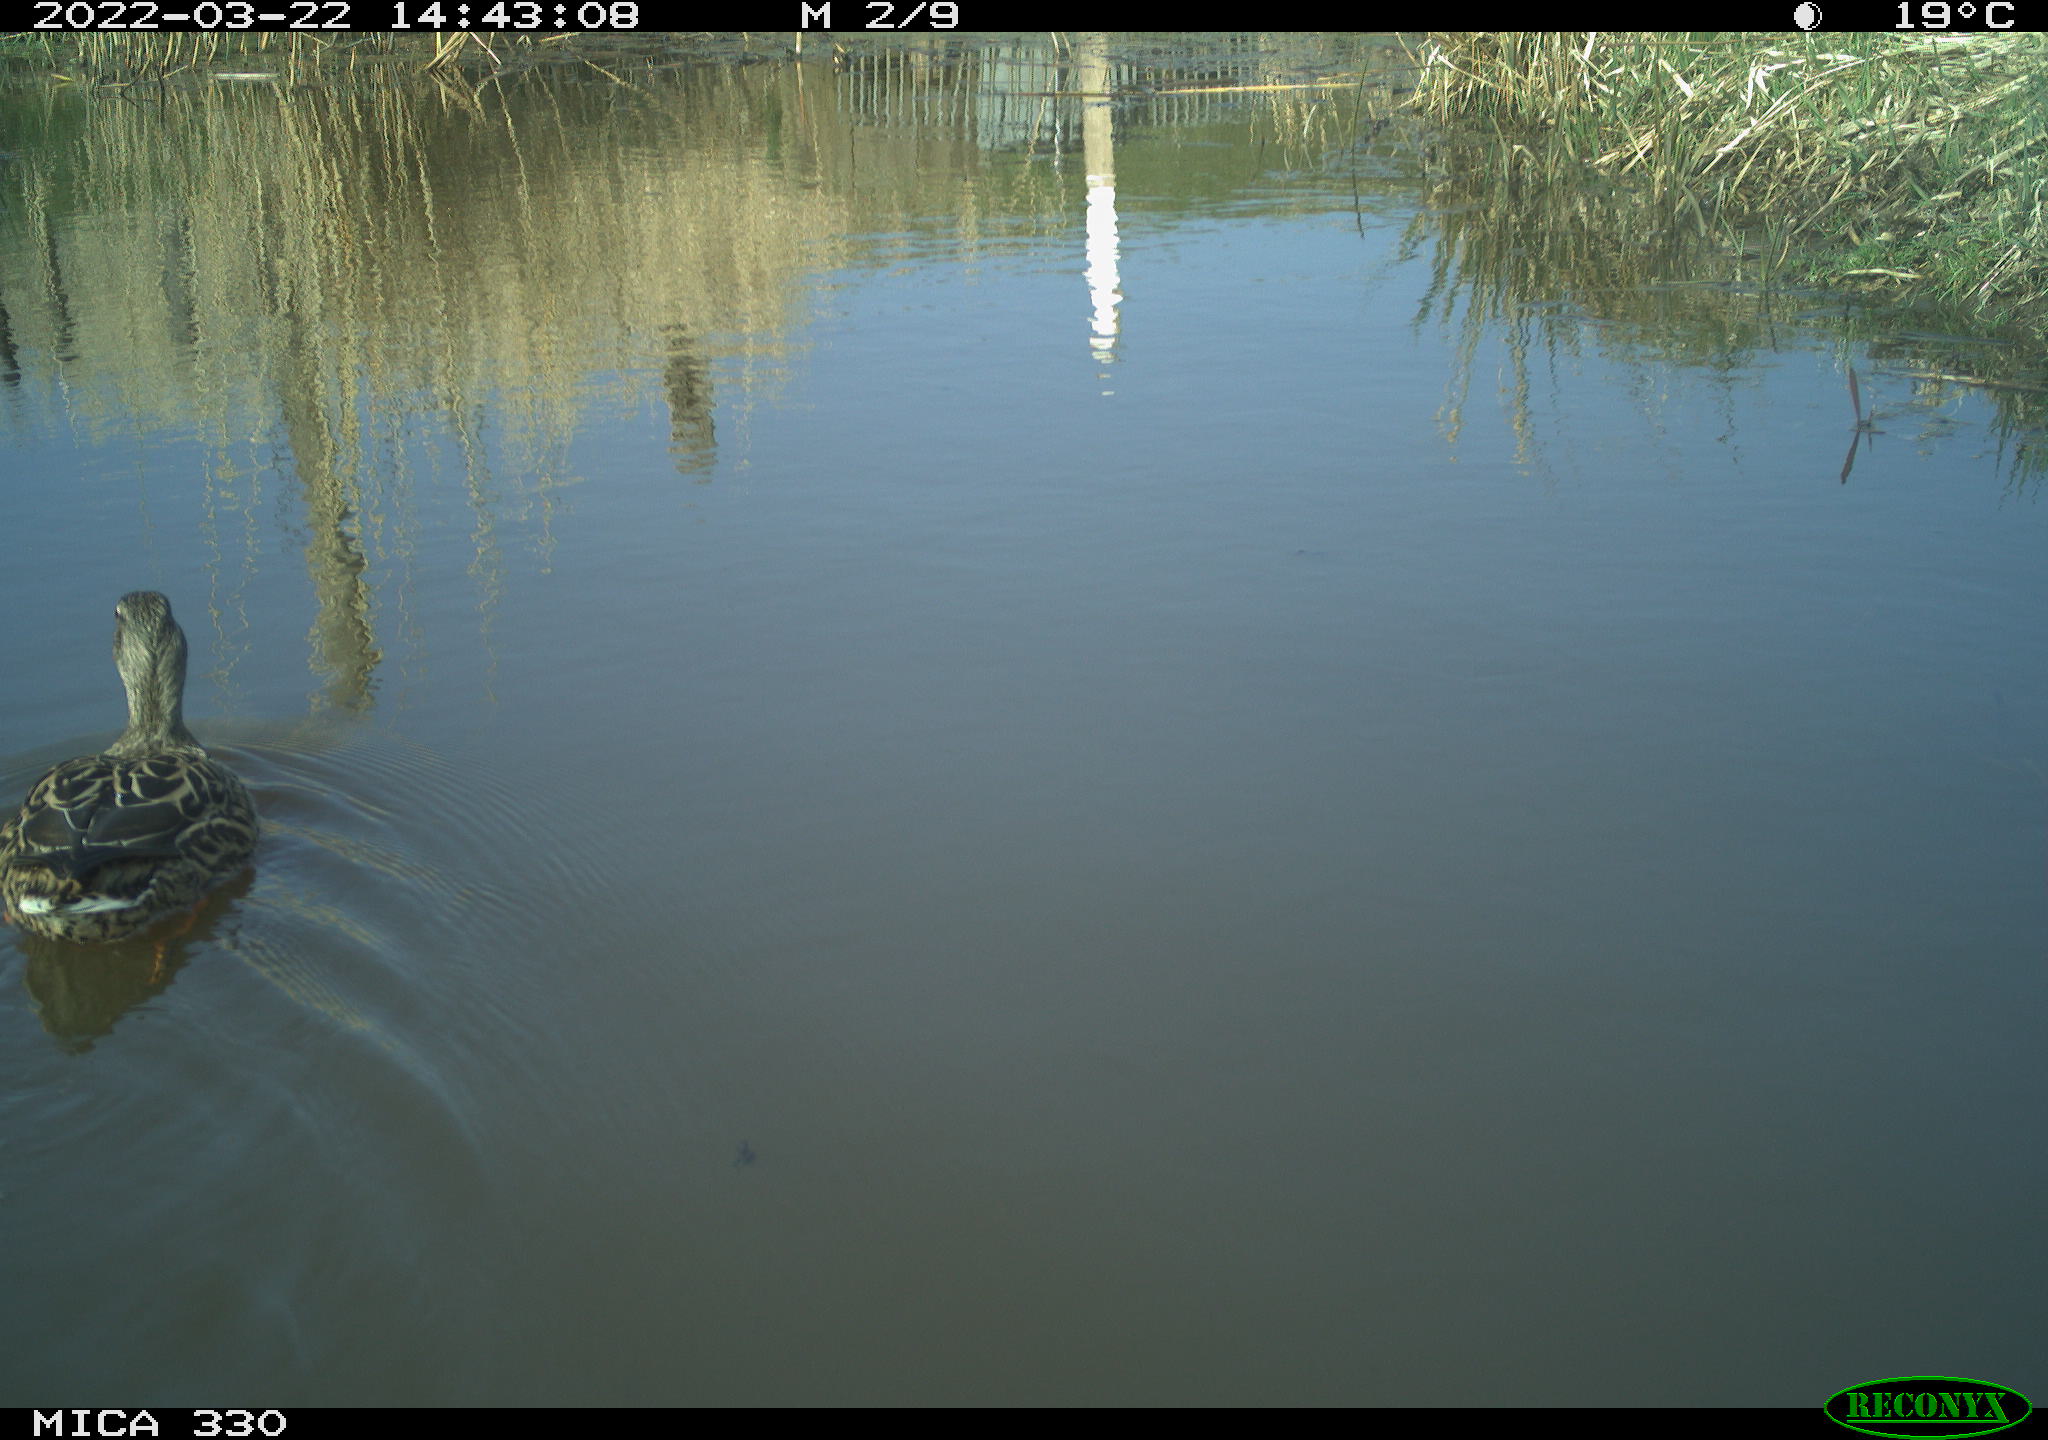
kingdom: Animalia
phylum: Chordata
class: Aves
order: Anseriformes
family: Anatidae
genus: Anas
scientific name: Anas platyrhynchos
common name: Mallard
